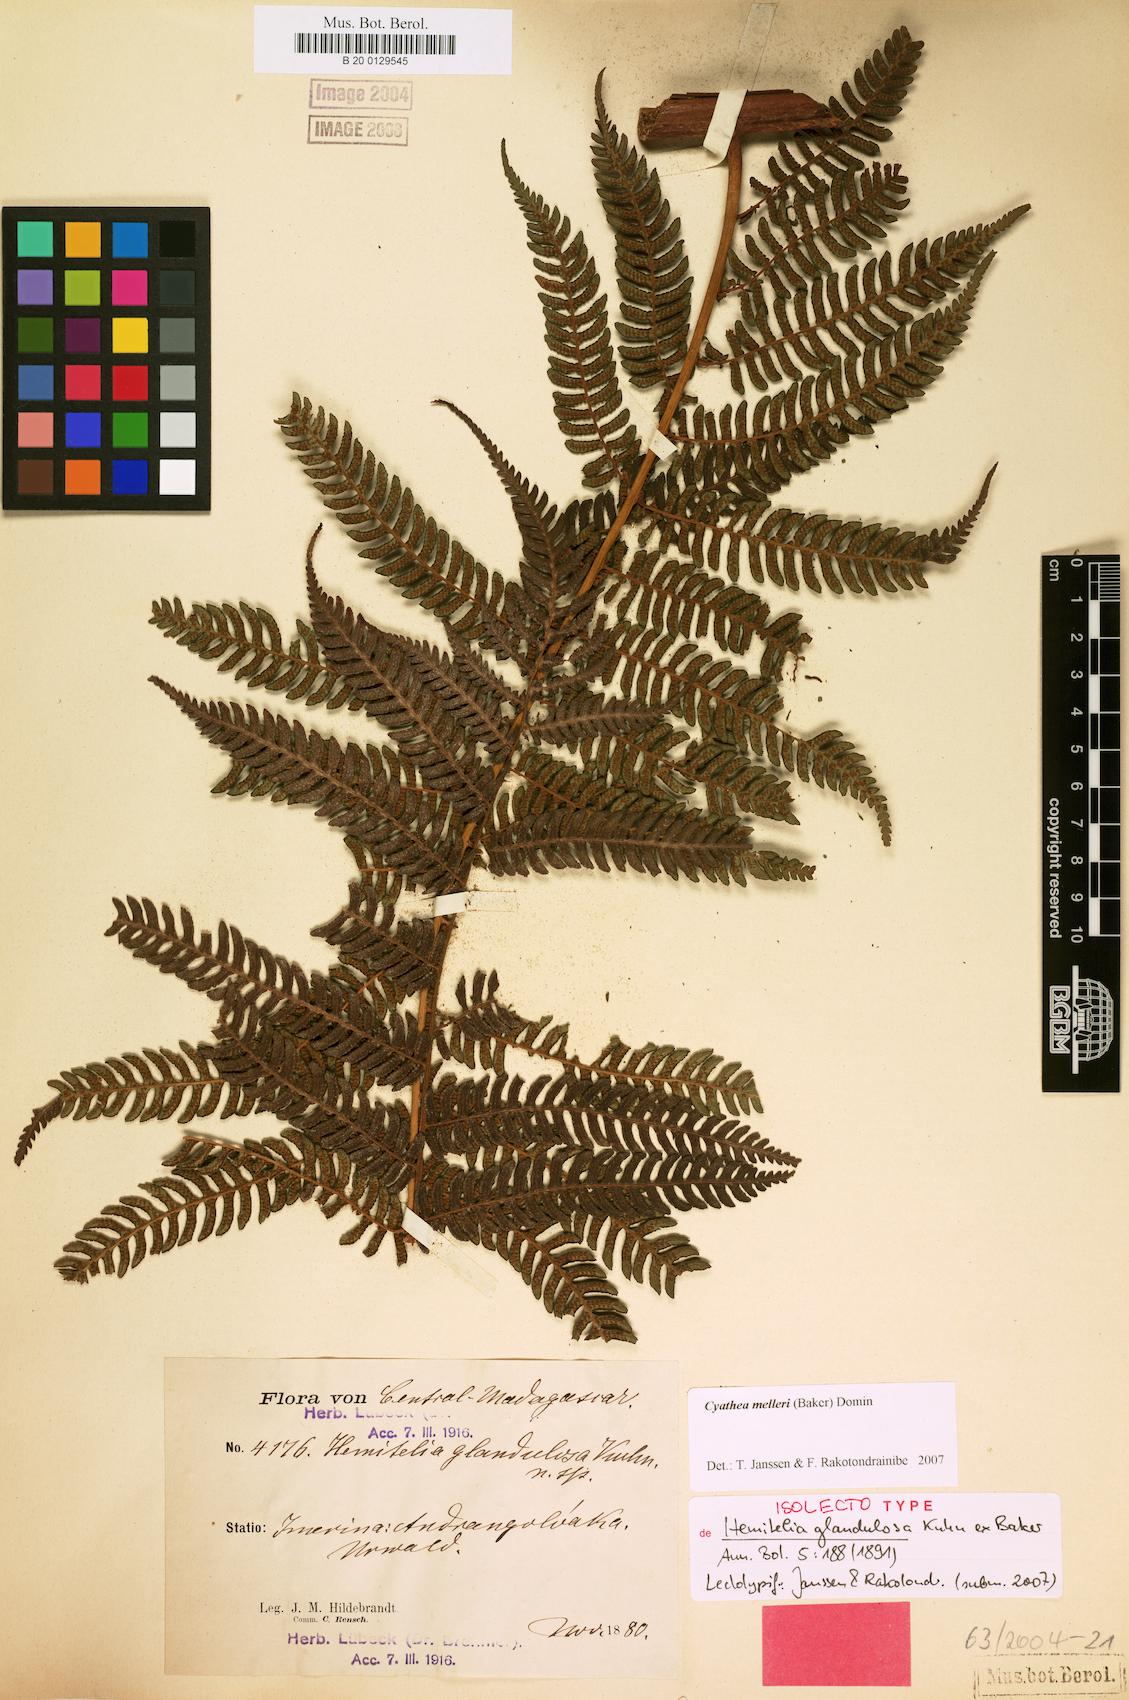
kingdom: Plantae
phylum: Tracheophyta
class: Polypodiopsida
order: Cyatheales
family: Cyatheaceae
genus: Alsophila
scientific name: Alsophila melleri
